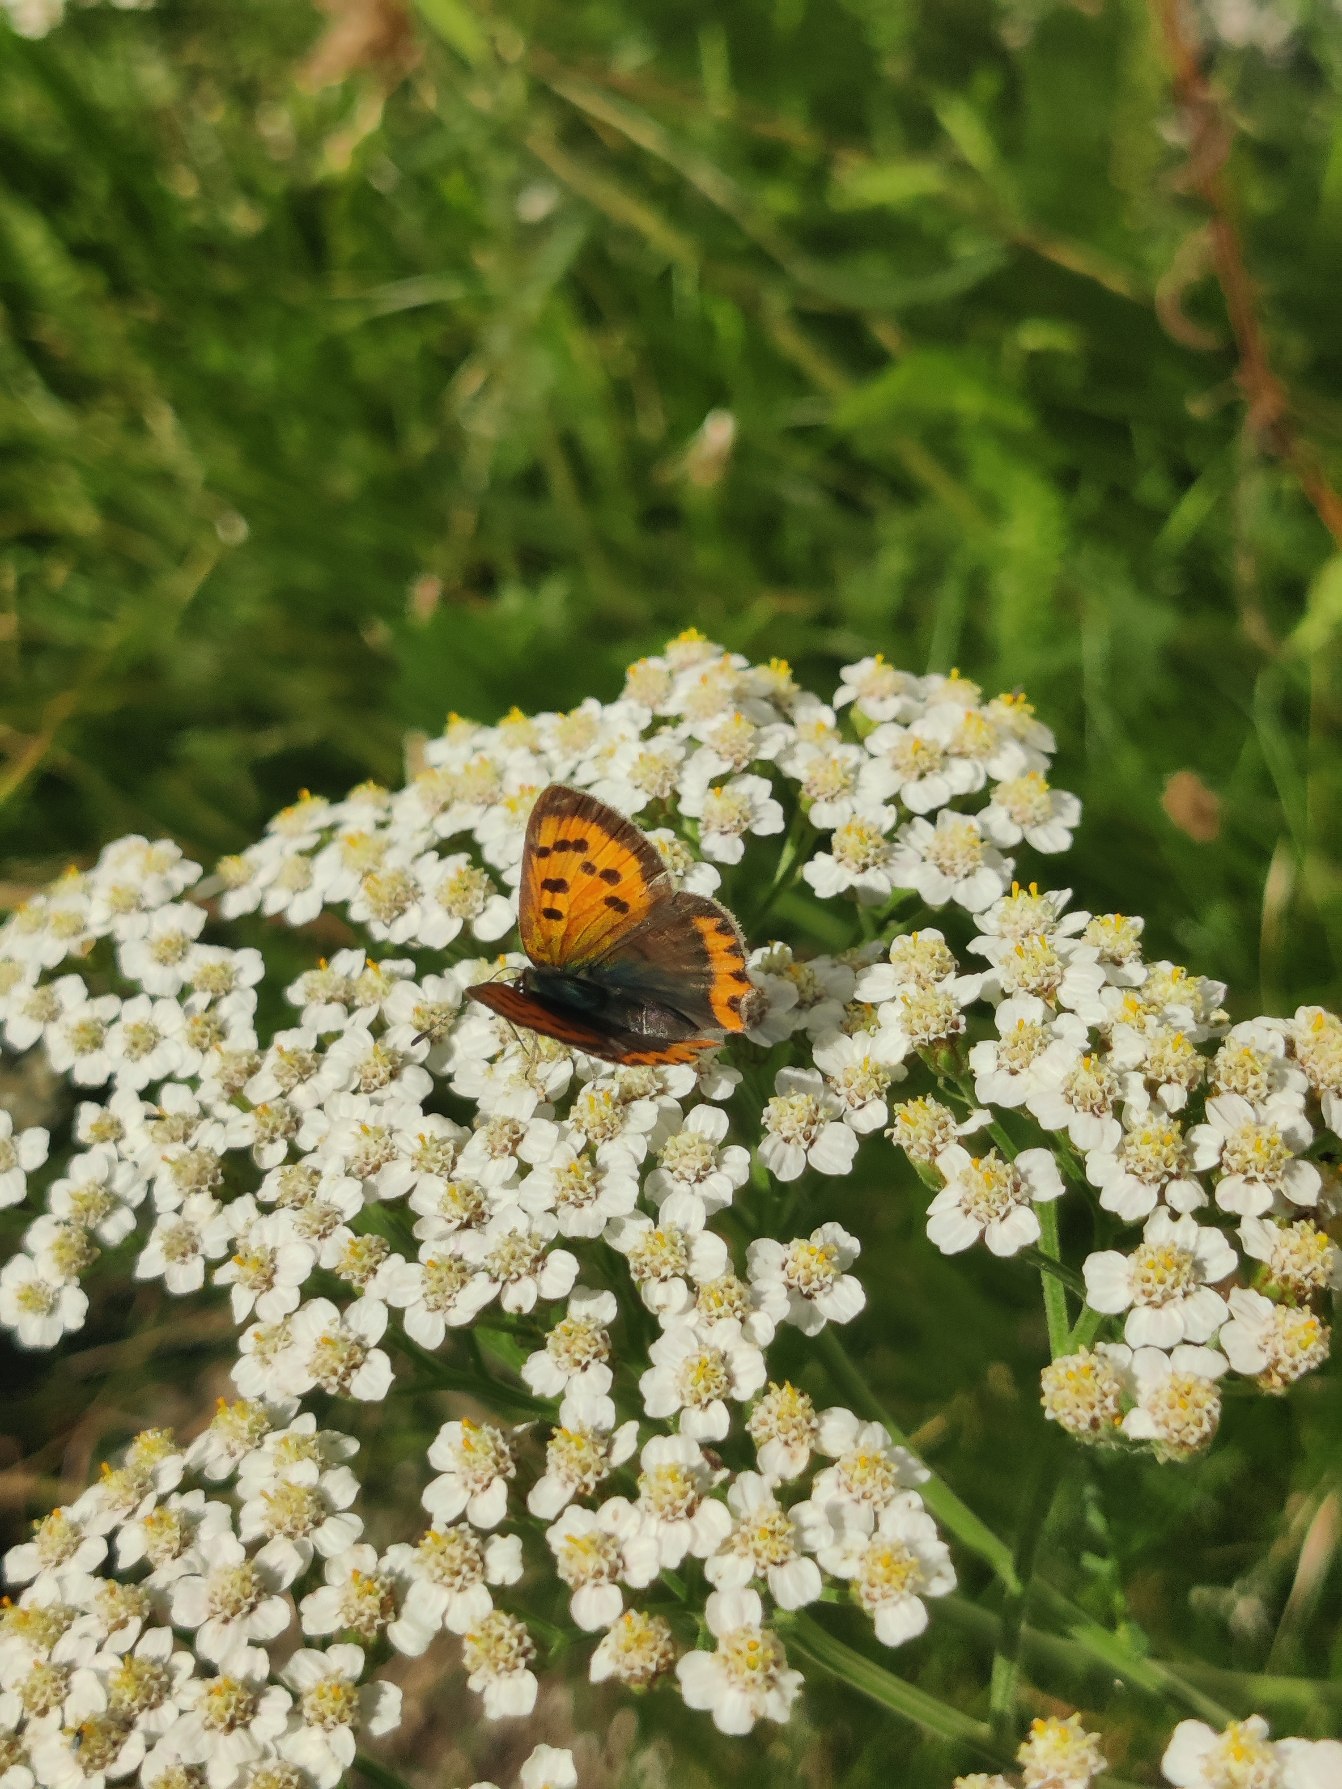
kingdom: Animalia
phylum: Arthropoda
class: Insecta
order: Lepidoptera
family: Lycaenidae
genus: Lycaena
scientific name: Lycaena phlaeas
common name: Lille ildfugl
